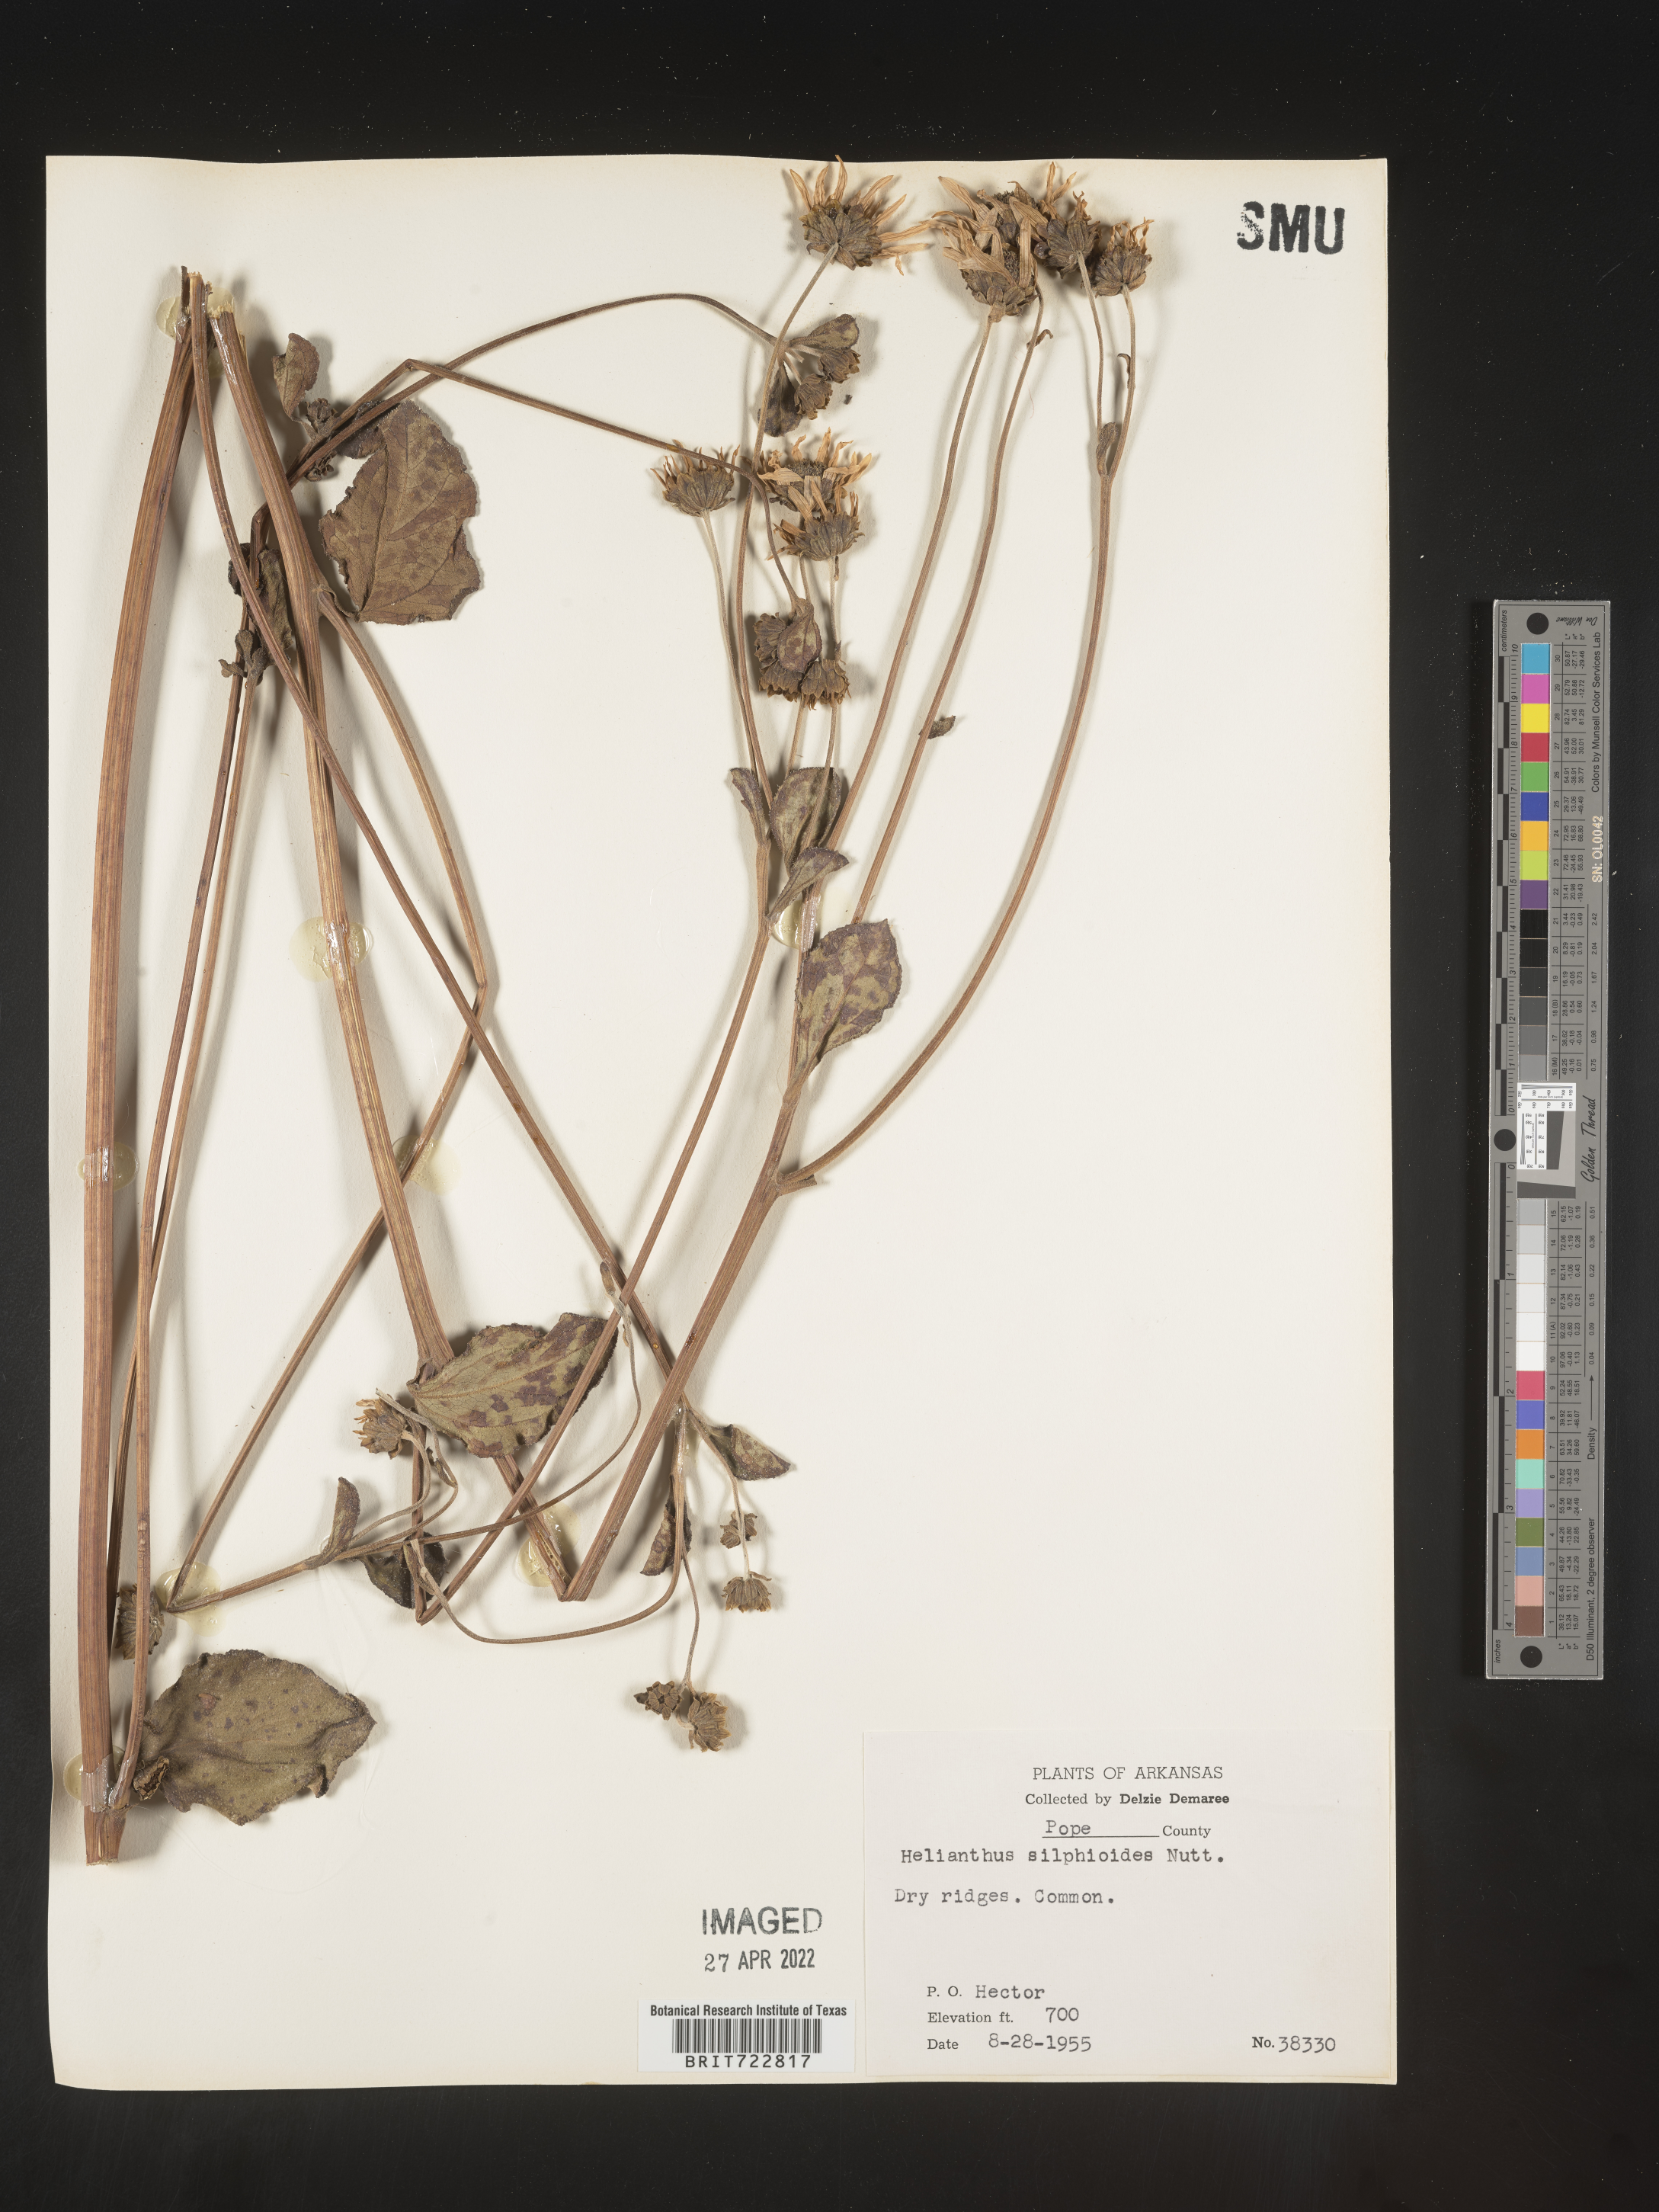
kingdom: Plantae
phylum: Tracheophyta
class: Magnoliopsida
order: Asterales
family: Asteraceae
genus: Helianthus
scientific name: Helianthus silphioides
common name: Odorous sunflower
